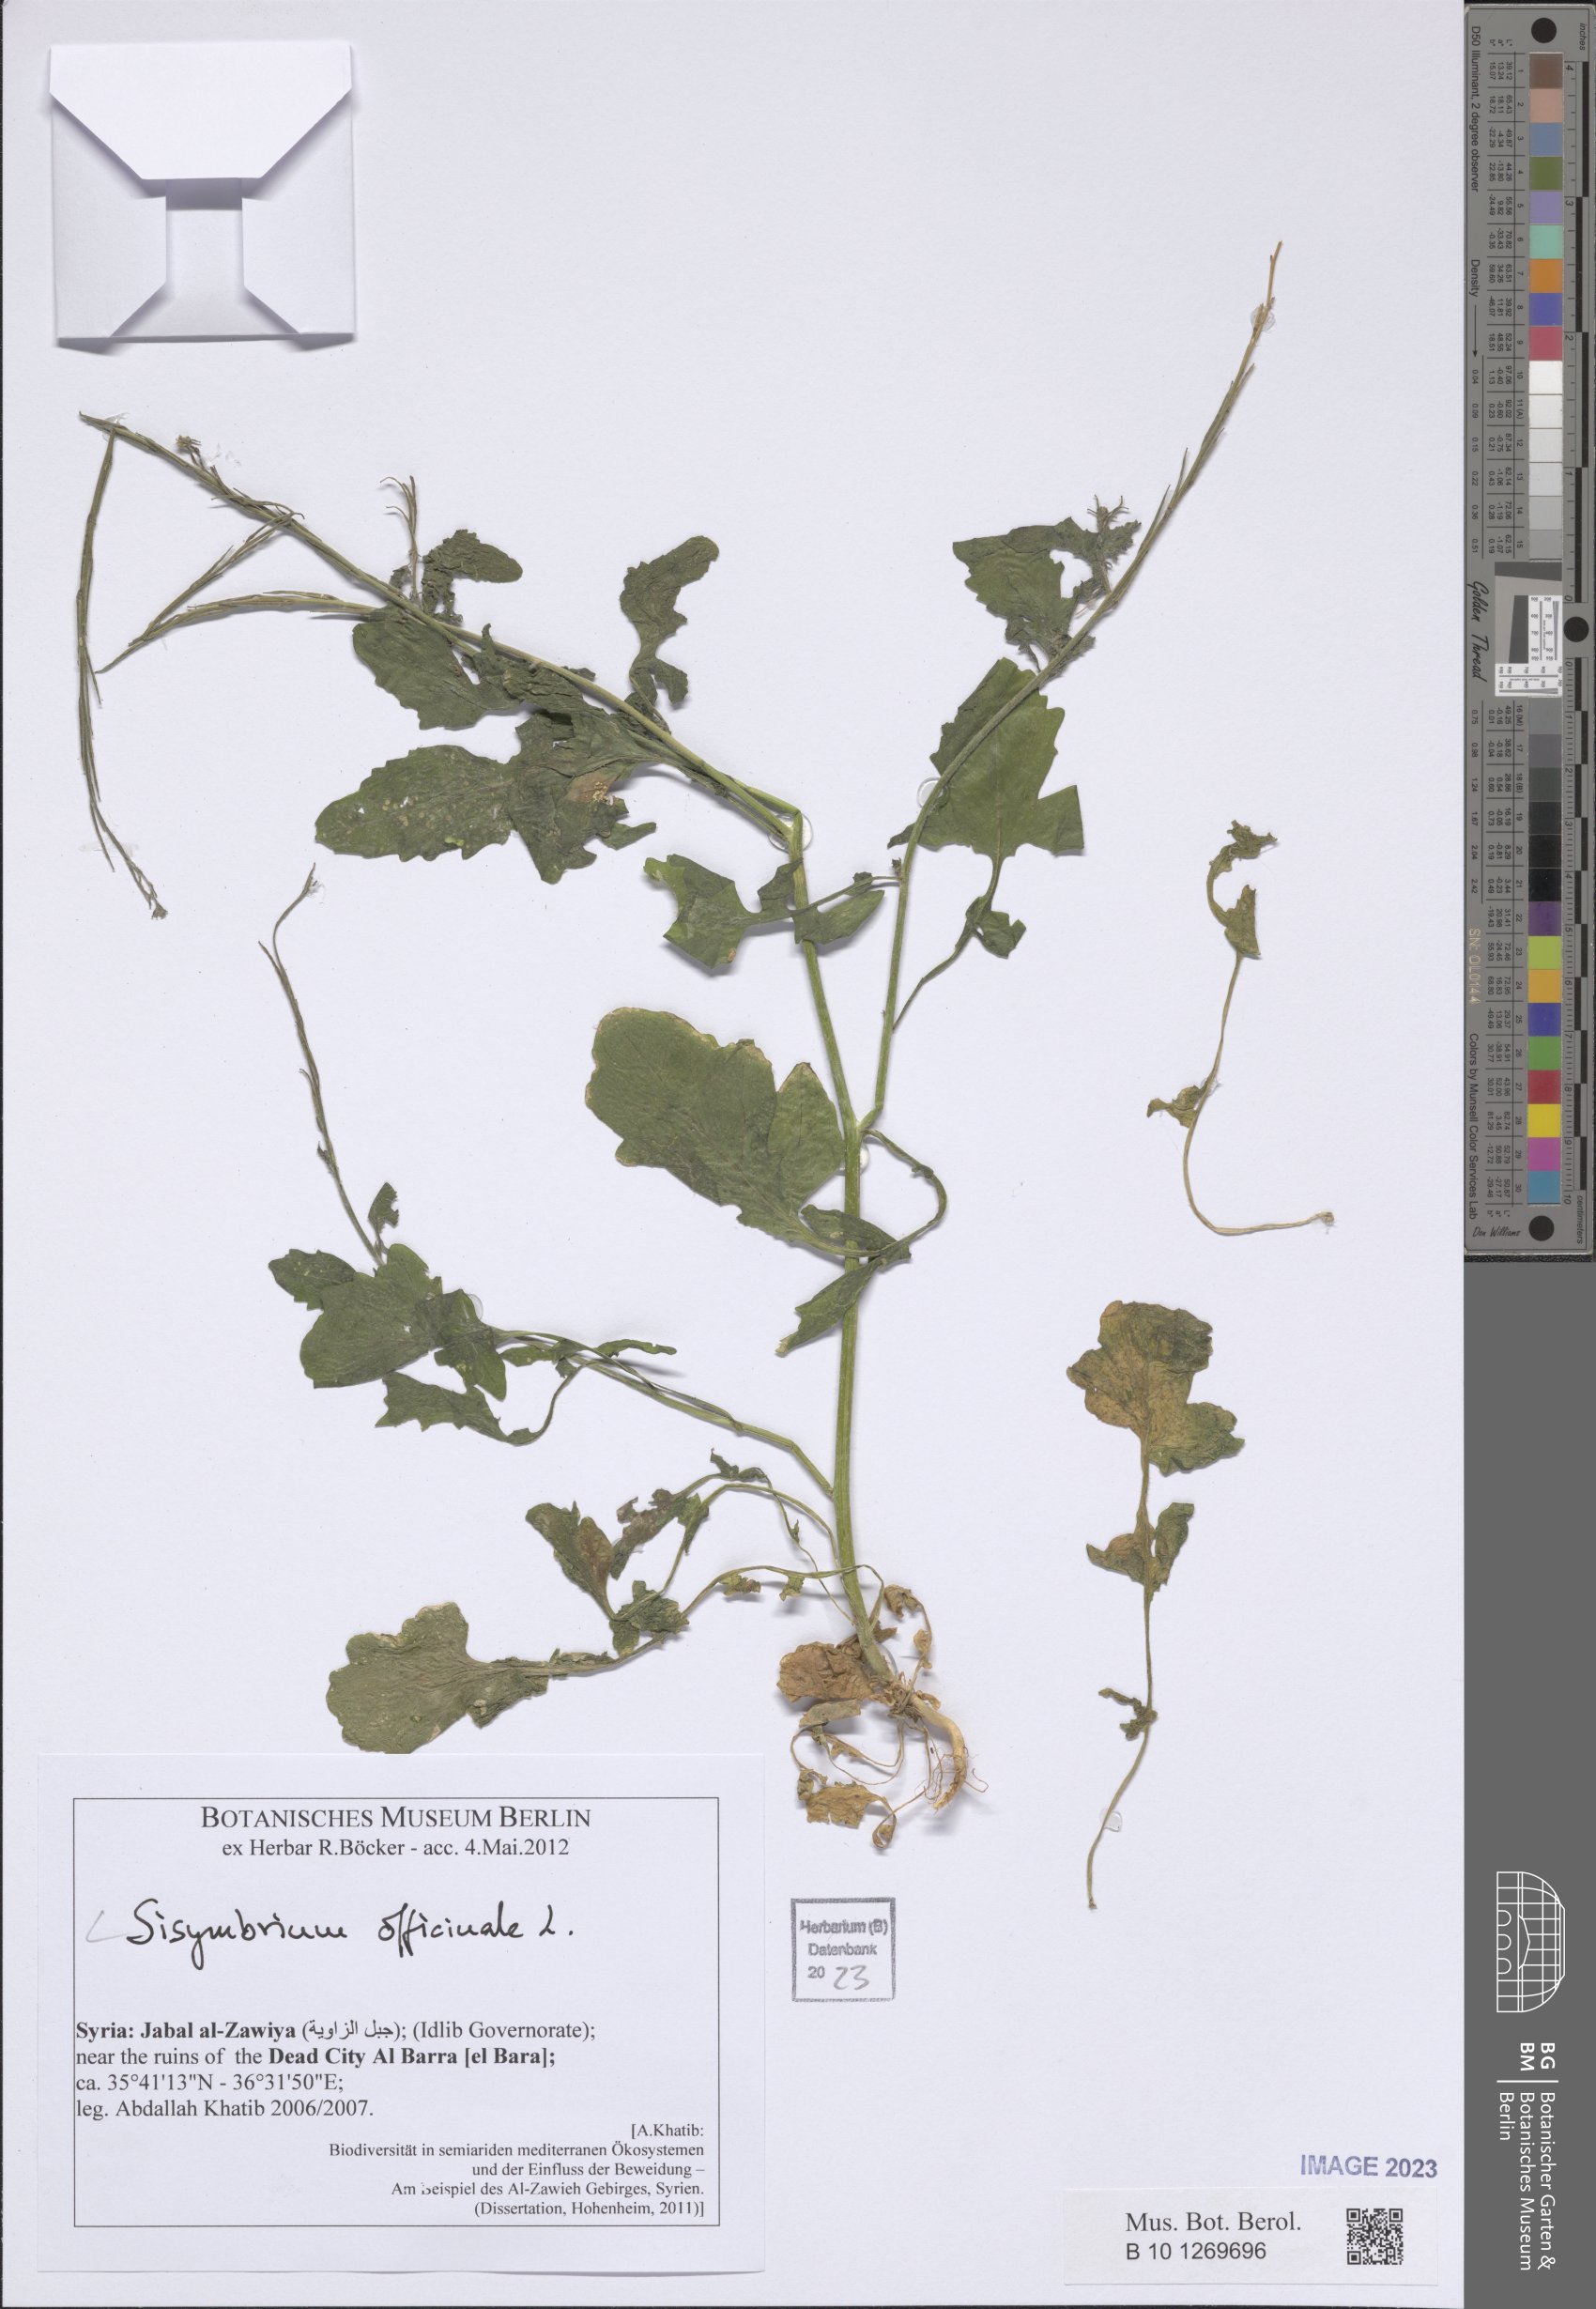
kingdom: Plantae
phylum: Tracheophyta
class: Magnoliopsida
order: Brassicales
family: Brassicaceae
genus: Sisymbrium
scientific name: Sisymbrium officinale
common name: Hedge mustard
